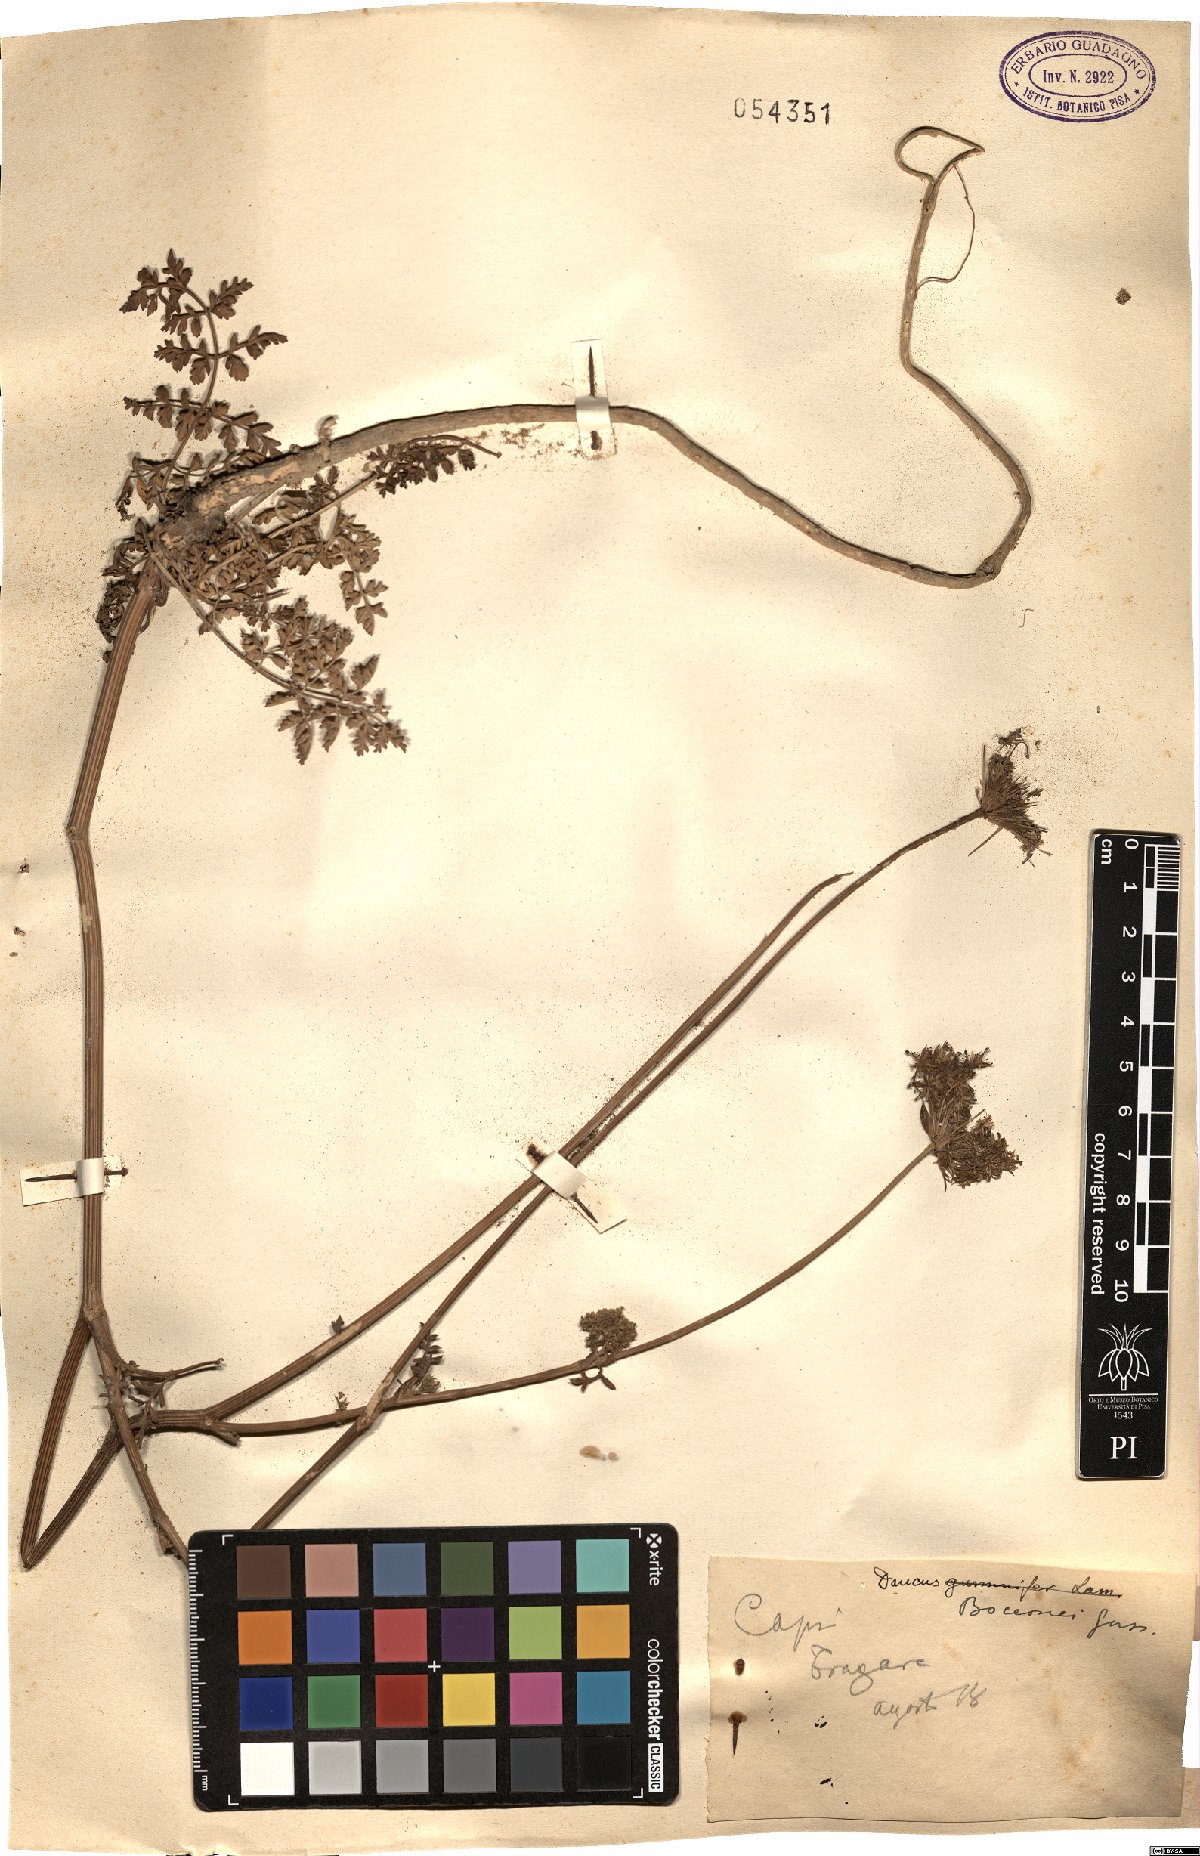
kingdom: Plantae
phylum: Tracheophyta
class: Magnoliopsida
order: Apiales
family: Apiaceae
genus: Daucus
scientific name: Daucus carota
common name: Wild carrot
